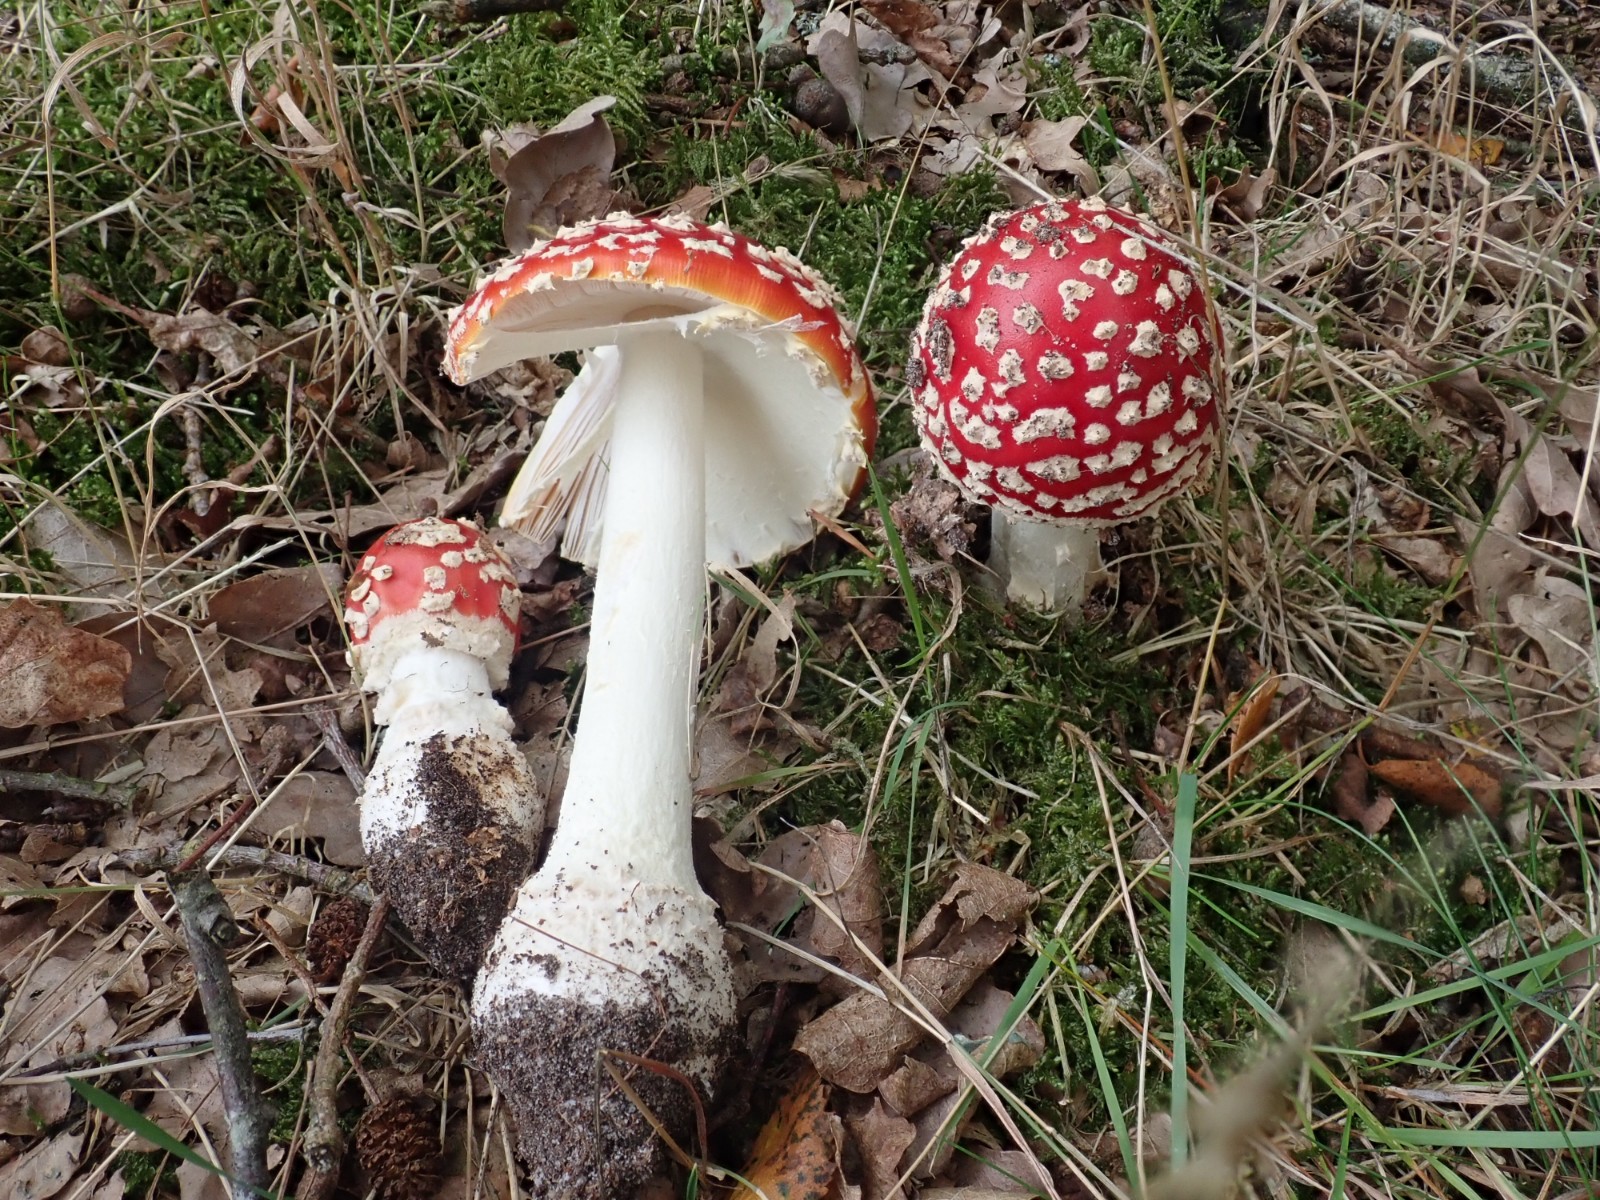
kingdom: Fungi
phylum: Basidiomycota
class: Agaricomycetes
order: Agaricales
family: Amanitaceae
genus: Amanita
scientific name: Amanita muscaria
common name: rød fluesvamp
